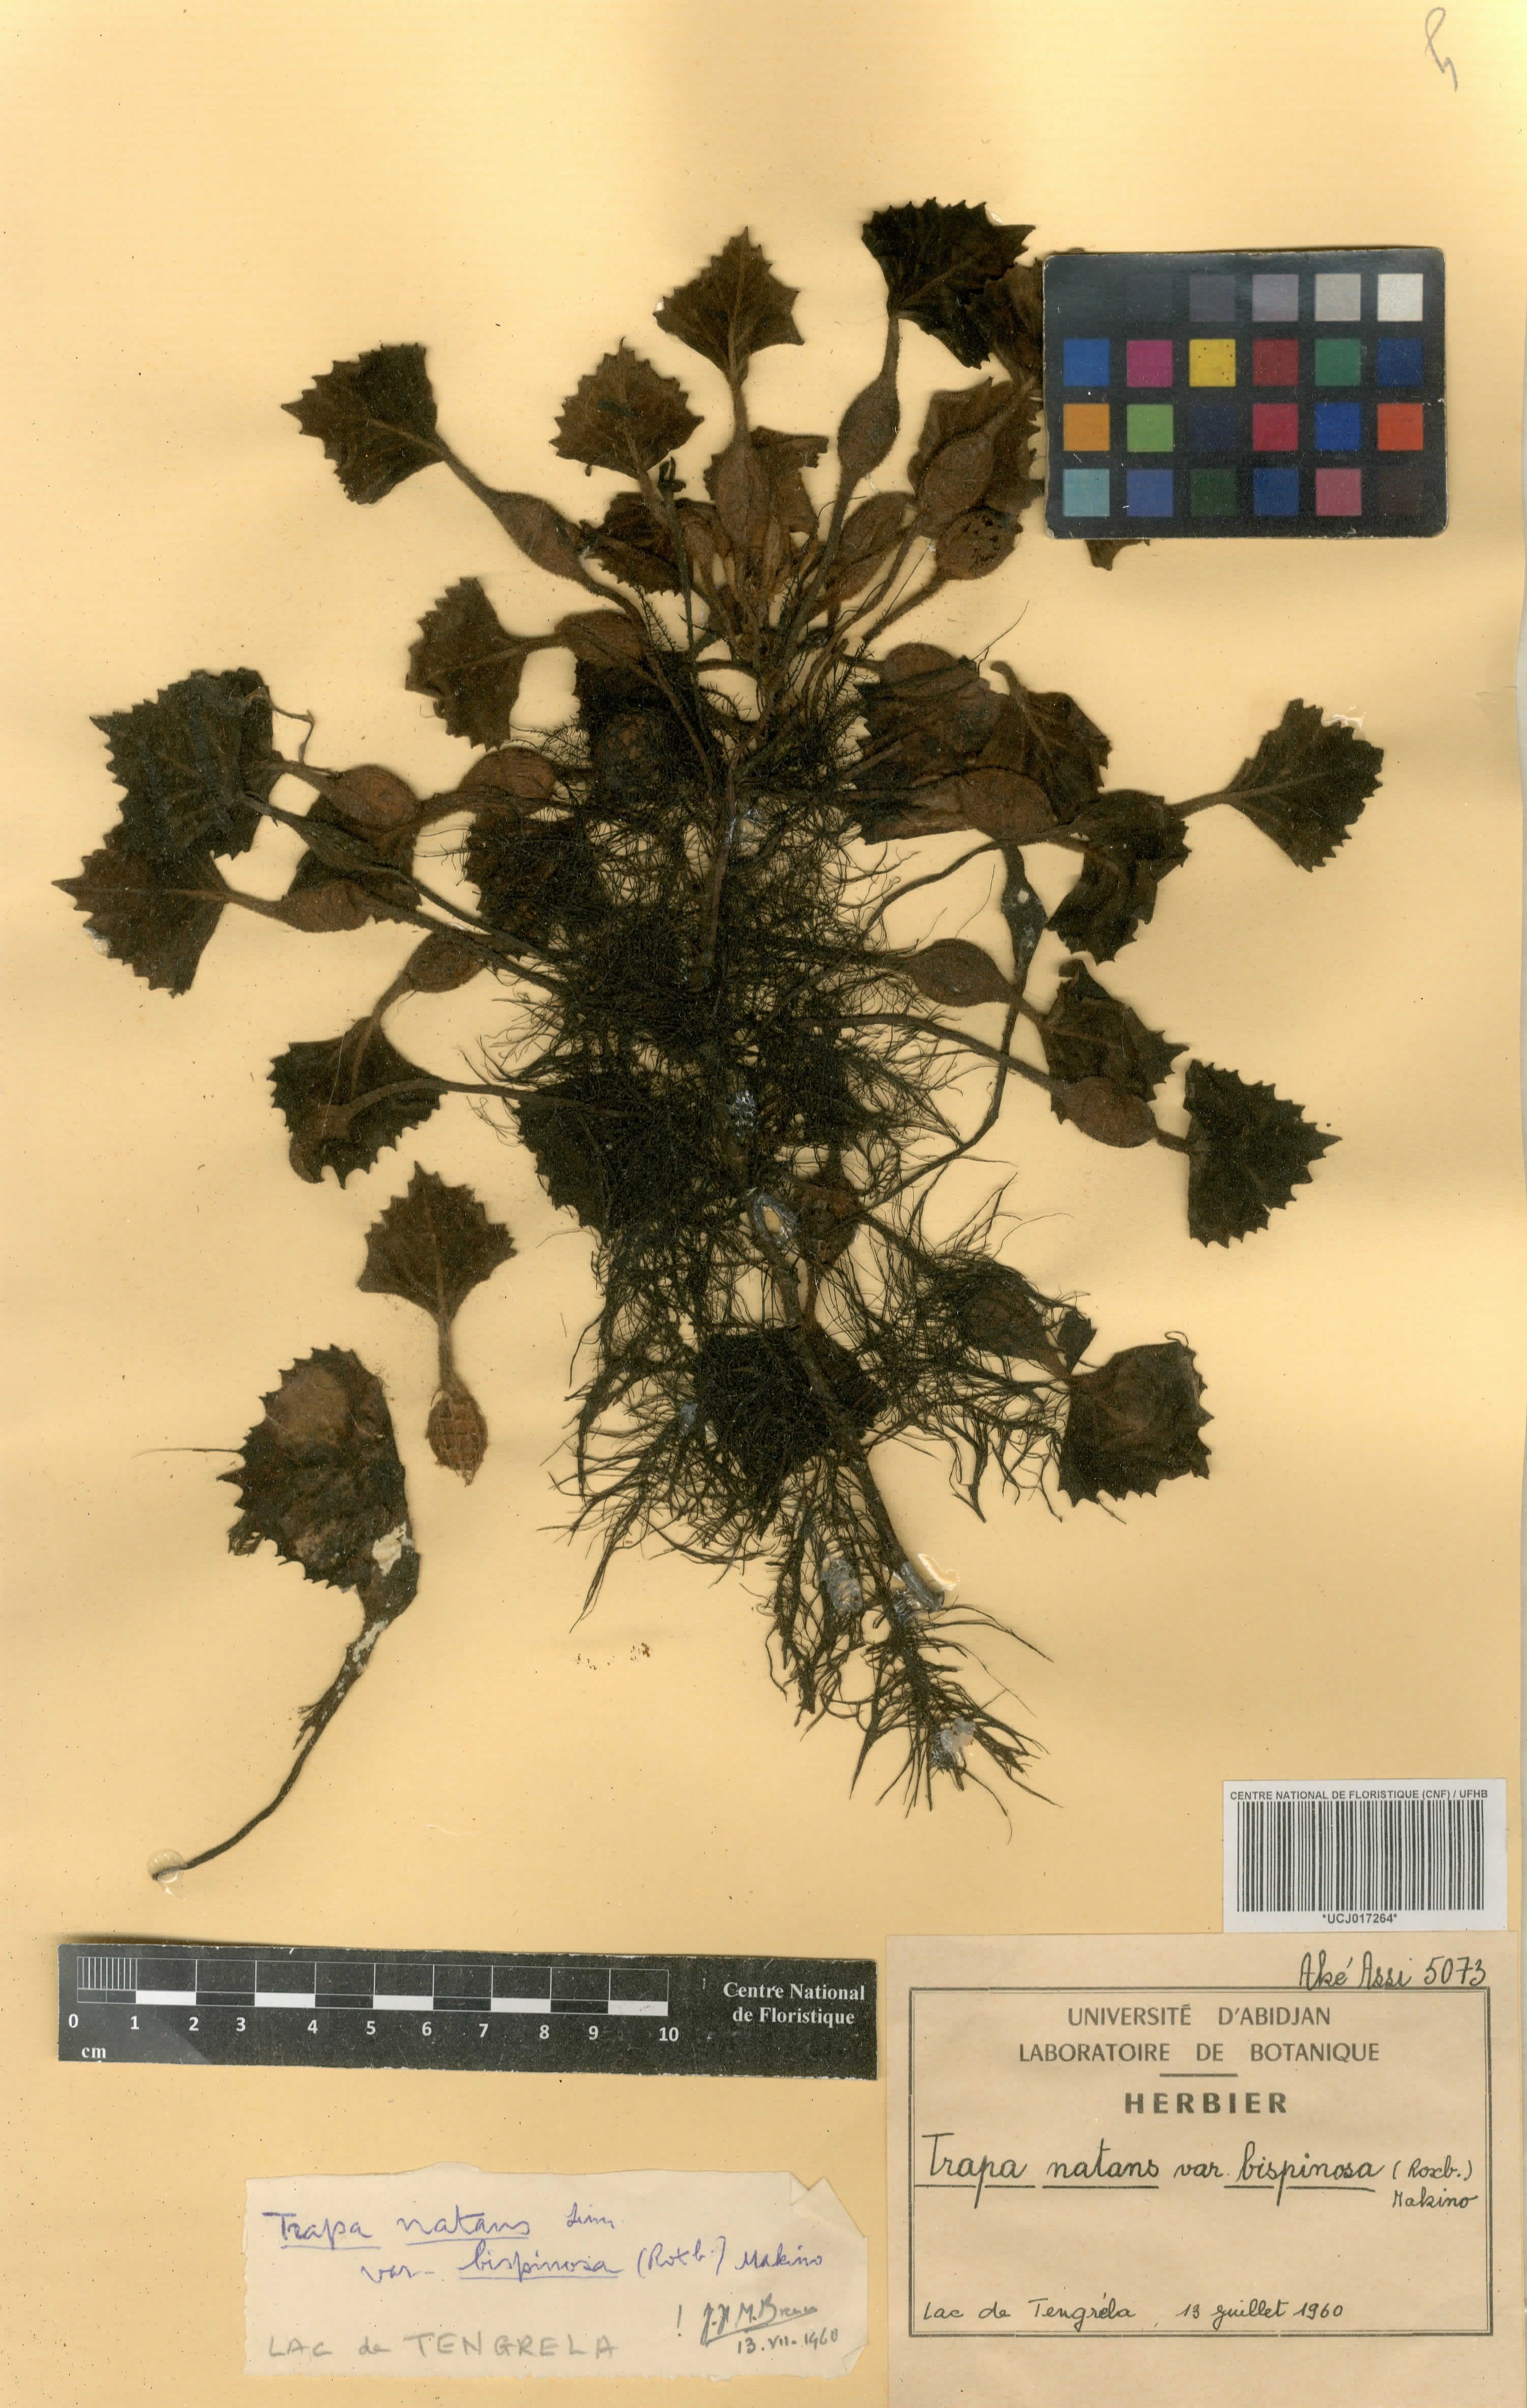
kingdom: Plantae
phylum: Tracheophyta
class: Magnoliopsida
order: Myrtales
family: Lythraceae
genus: Trapa
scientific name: Trapa natans
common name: Water chestnut
